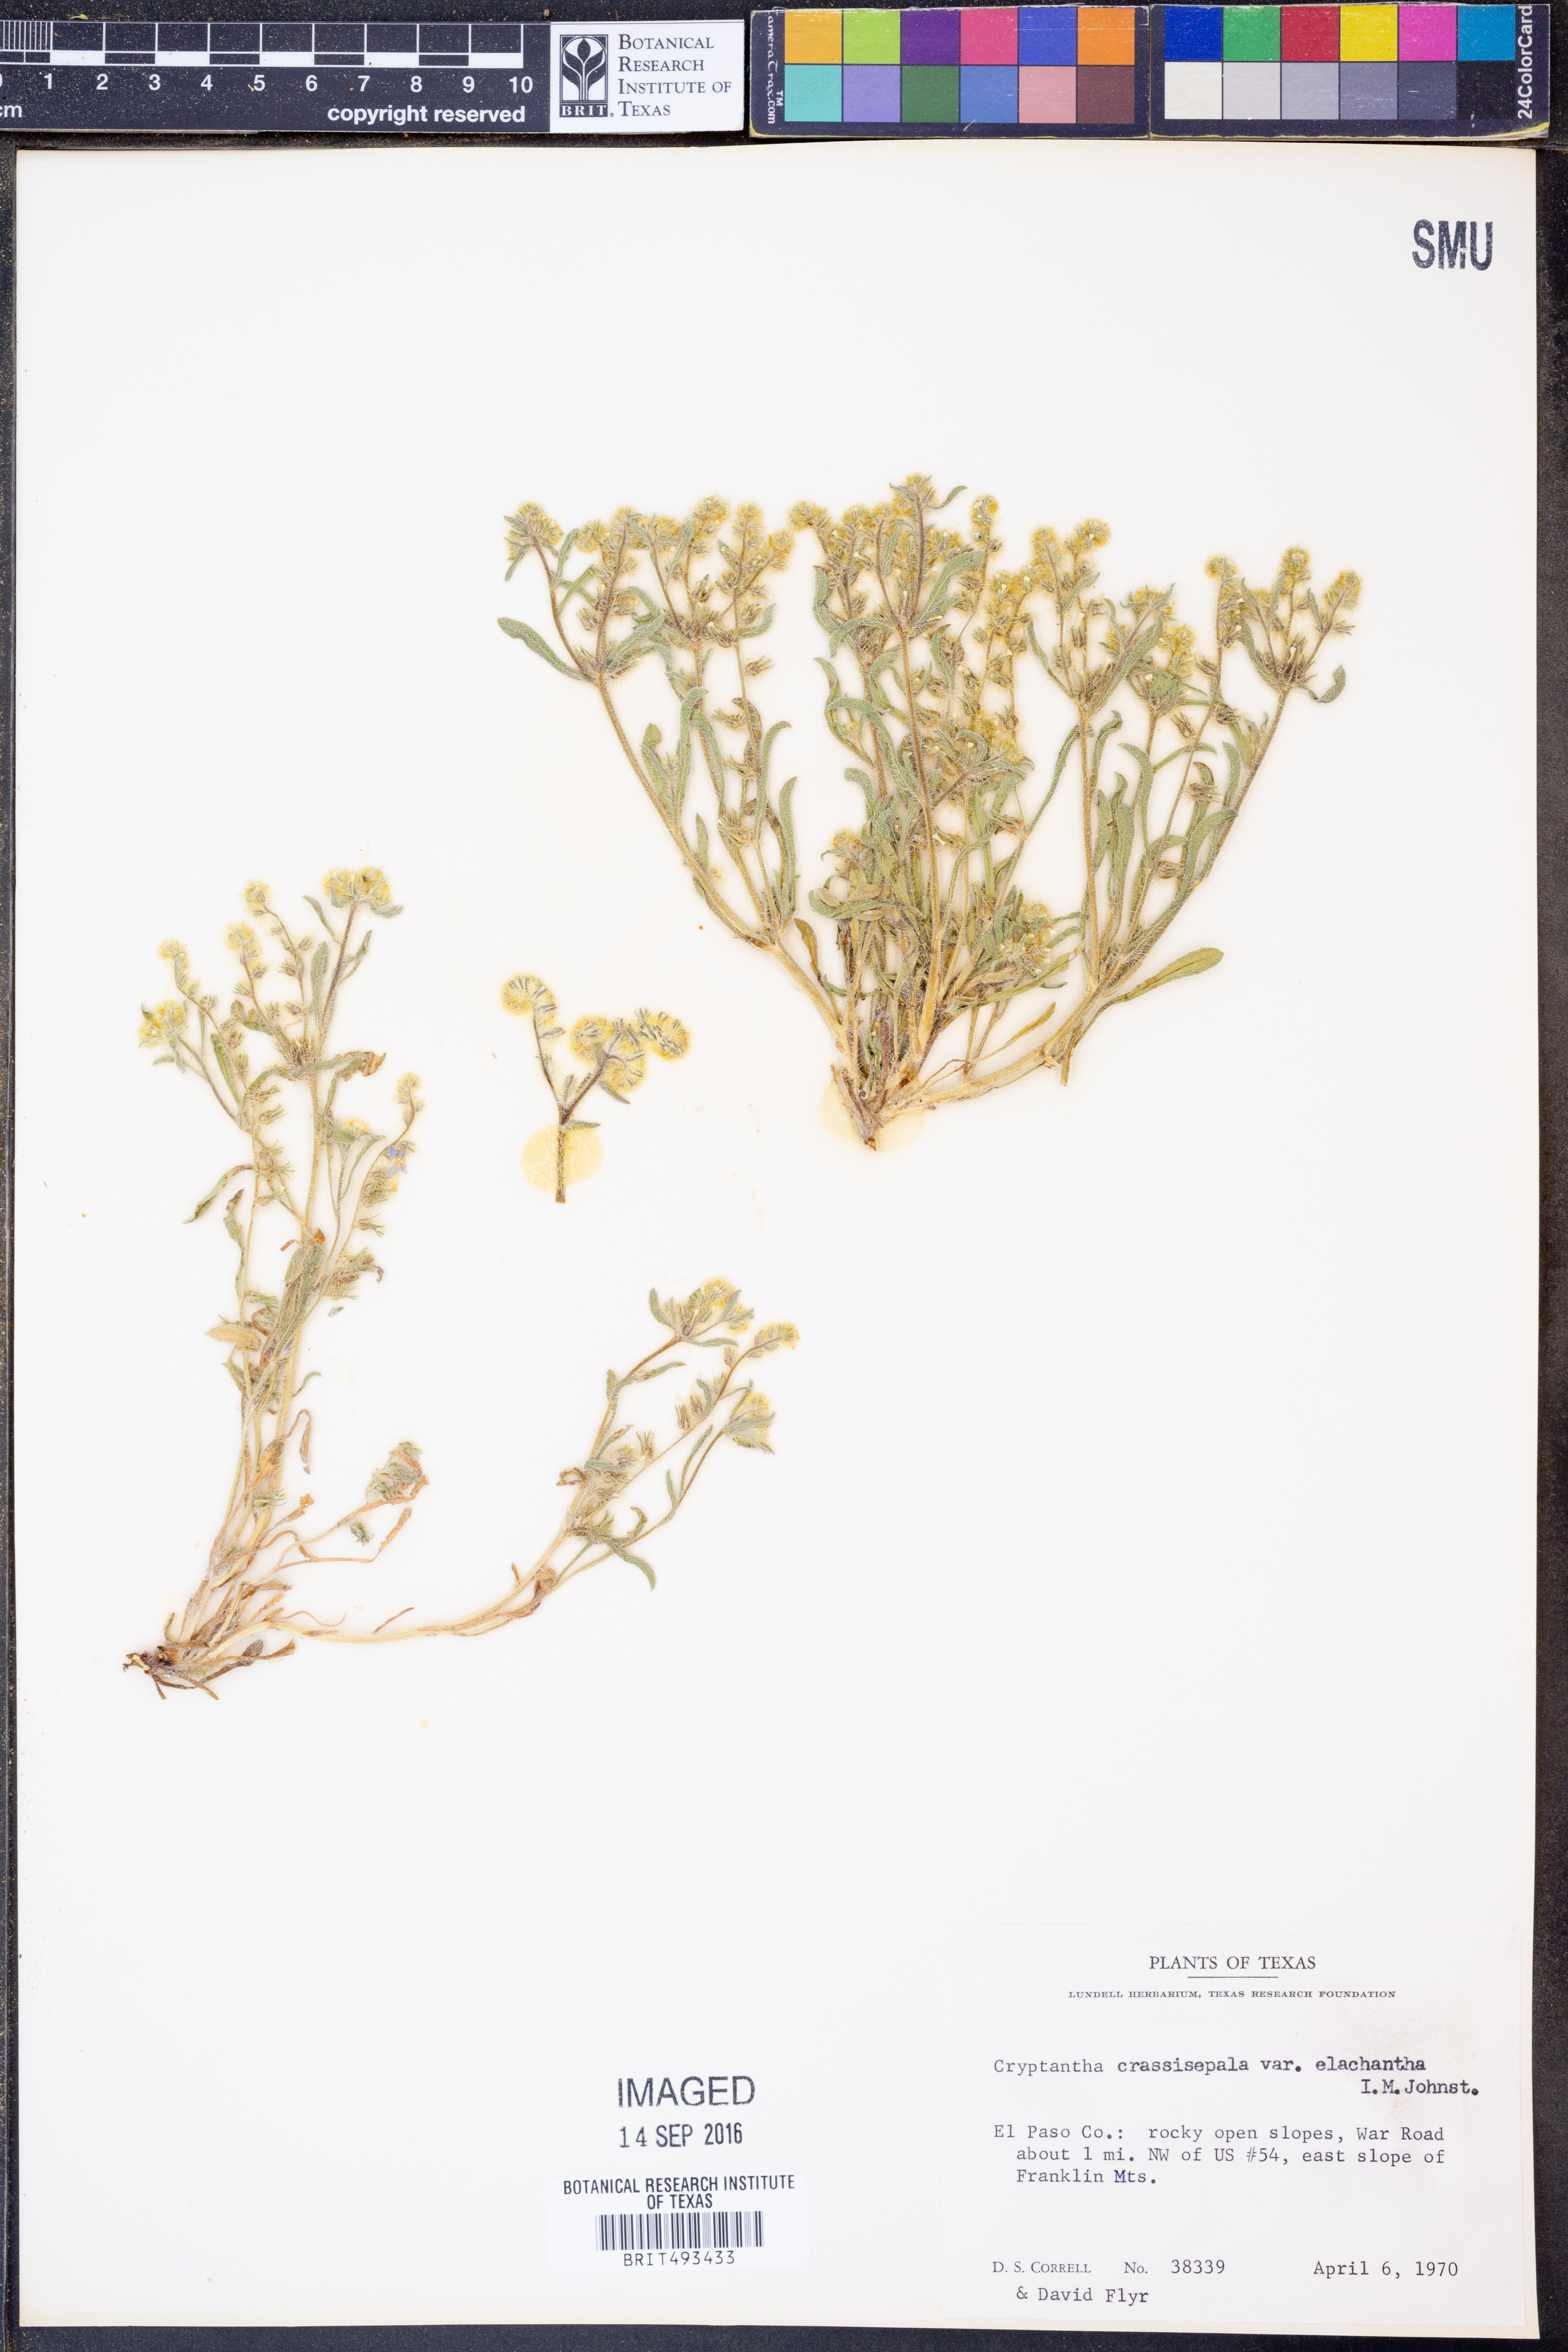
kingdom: Plantae
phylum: Tracheophyta
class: Magnoliopsida
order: Boraginales
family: Boraginaceae
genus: Cryptantha
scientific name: Cryptantha crassisepala
